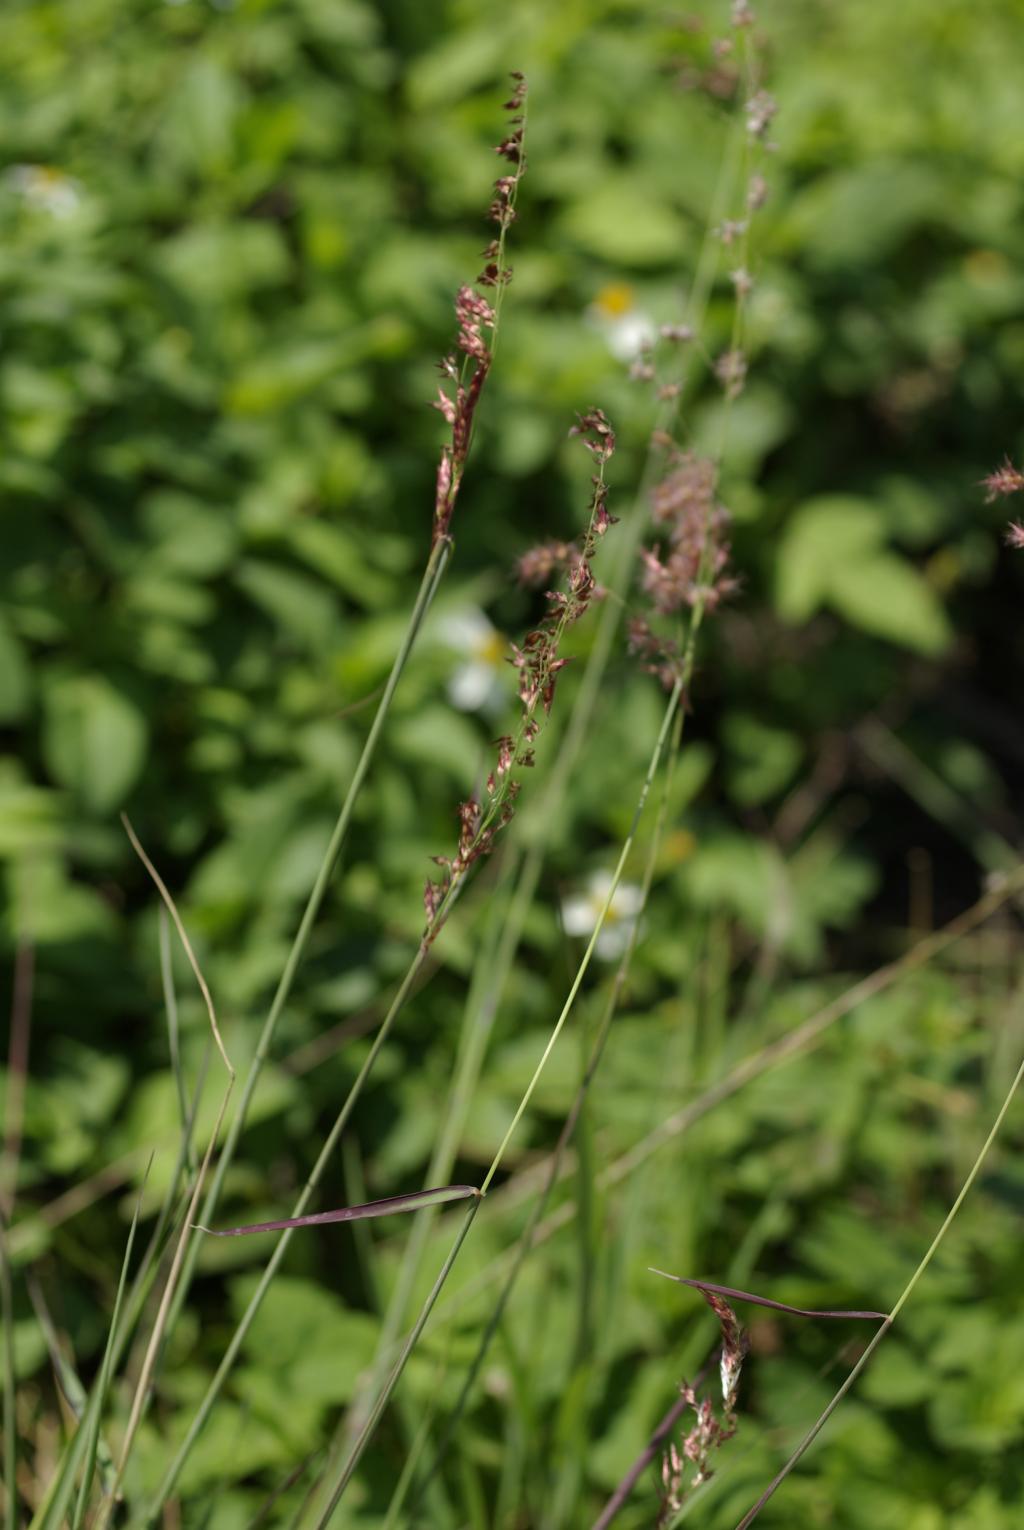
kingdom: Plantae
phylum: Tracheophyta
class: Liliopsida
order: Poales
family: Poaceae
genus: Melinis
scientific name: Melinis repens
